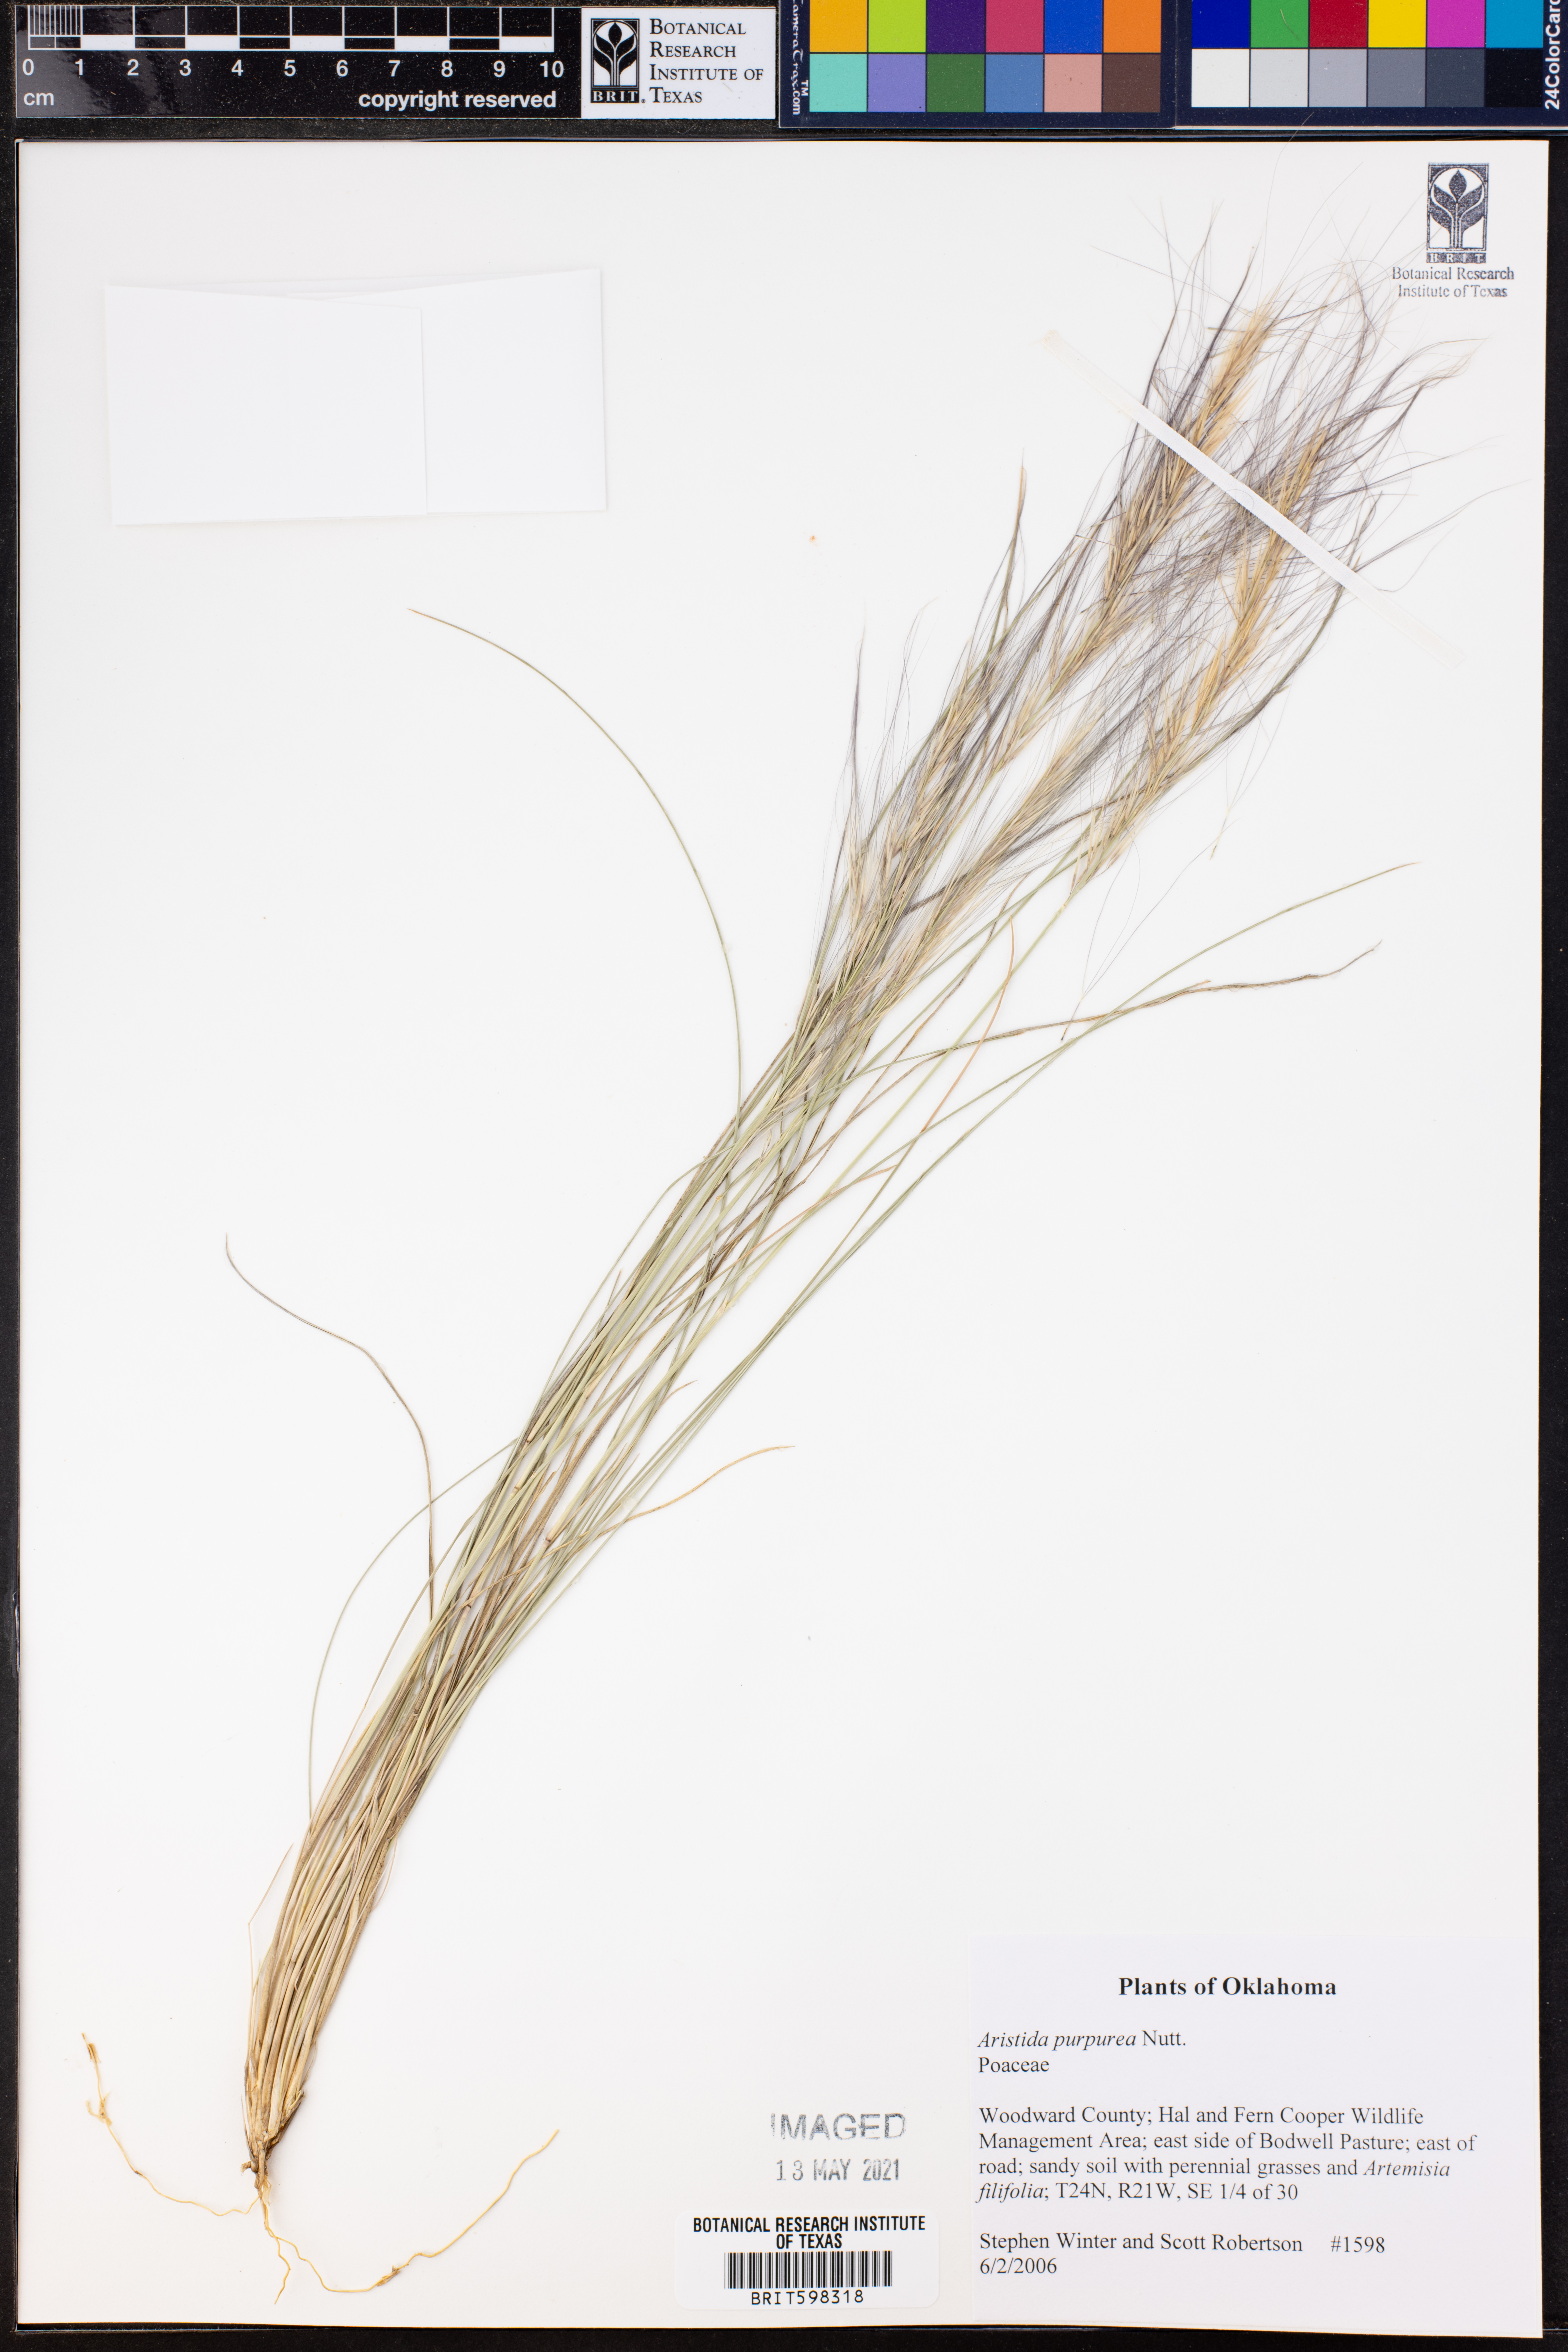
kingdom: Plantae
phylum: Tracheophyta
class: Liliopsida
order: Poales
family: Poaceae
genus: Aristida
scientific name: Aristida purpurea
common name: Purple threeawn
